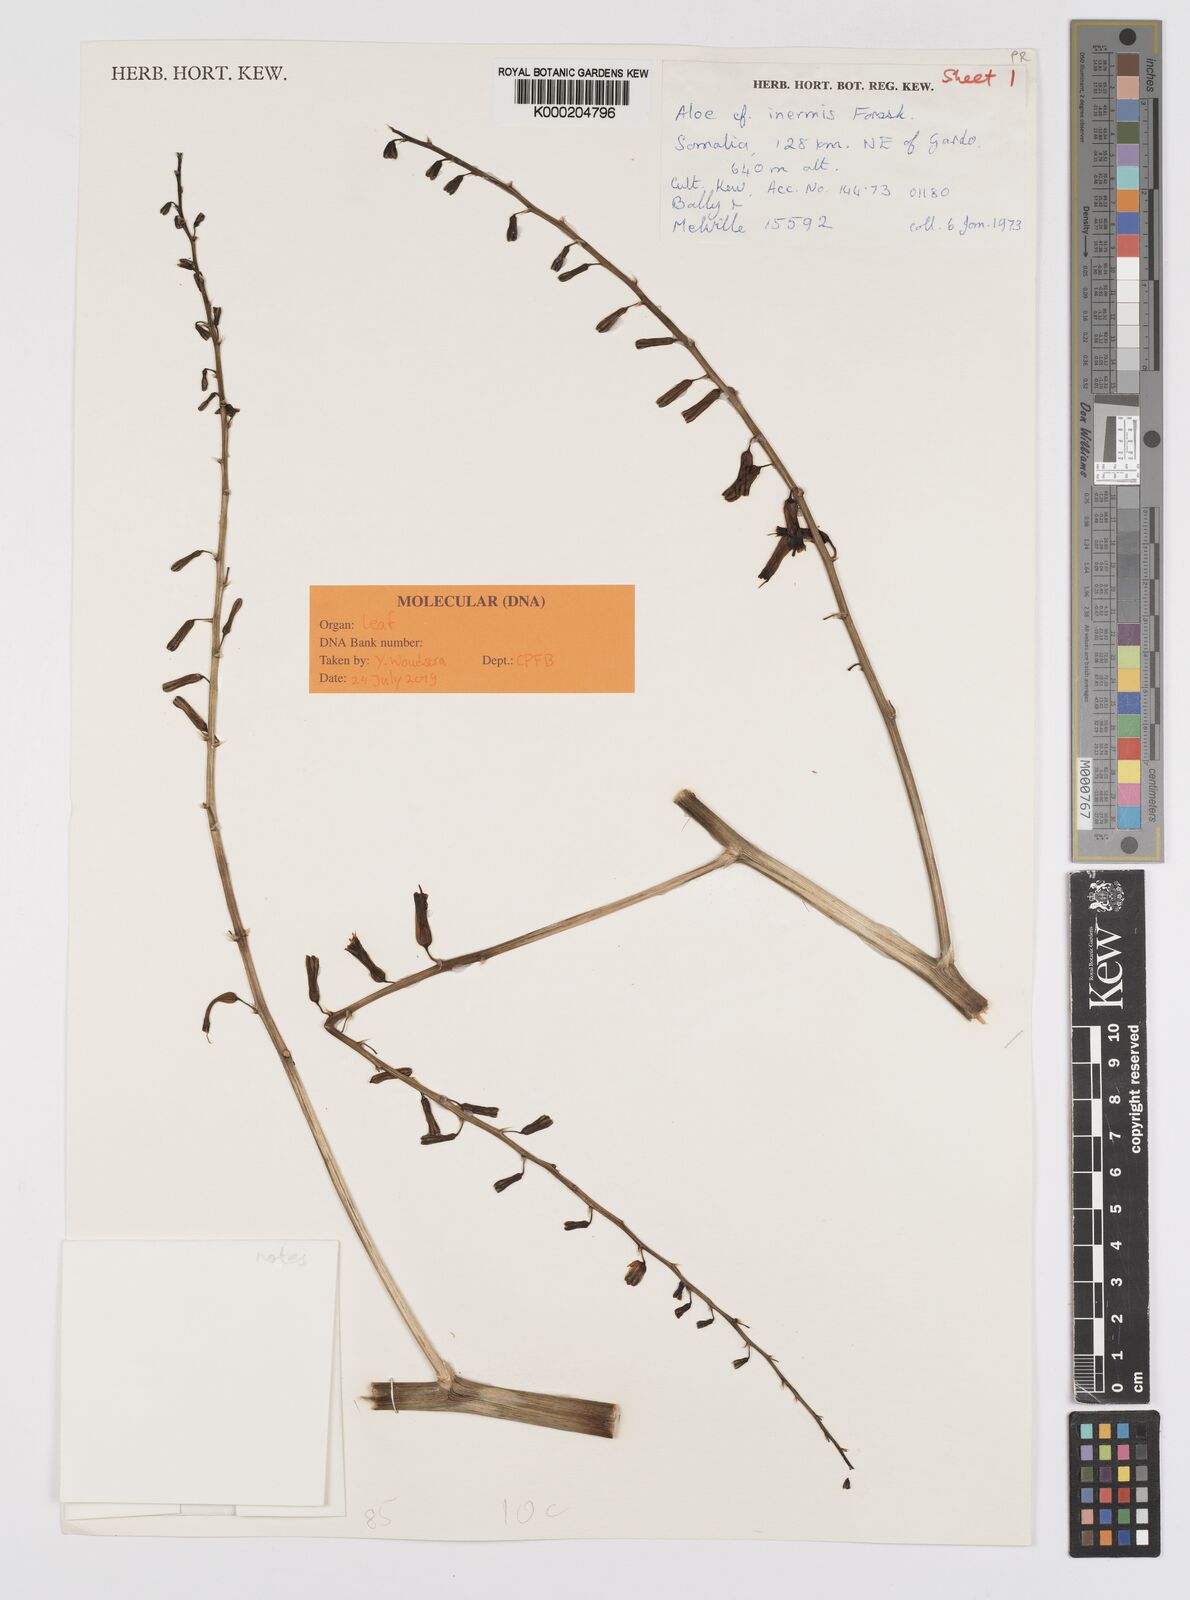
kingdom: Plantae
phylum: Tracheophyta
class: Liliopsida
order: Asparagales
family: Asphodelaceae
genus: Aloe
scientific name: Aloe brunneostriata
